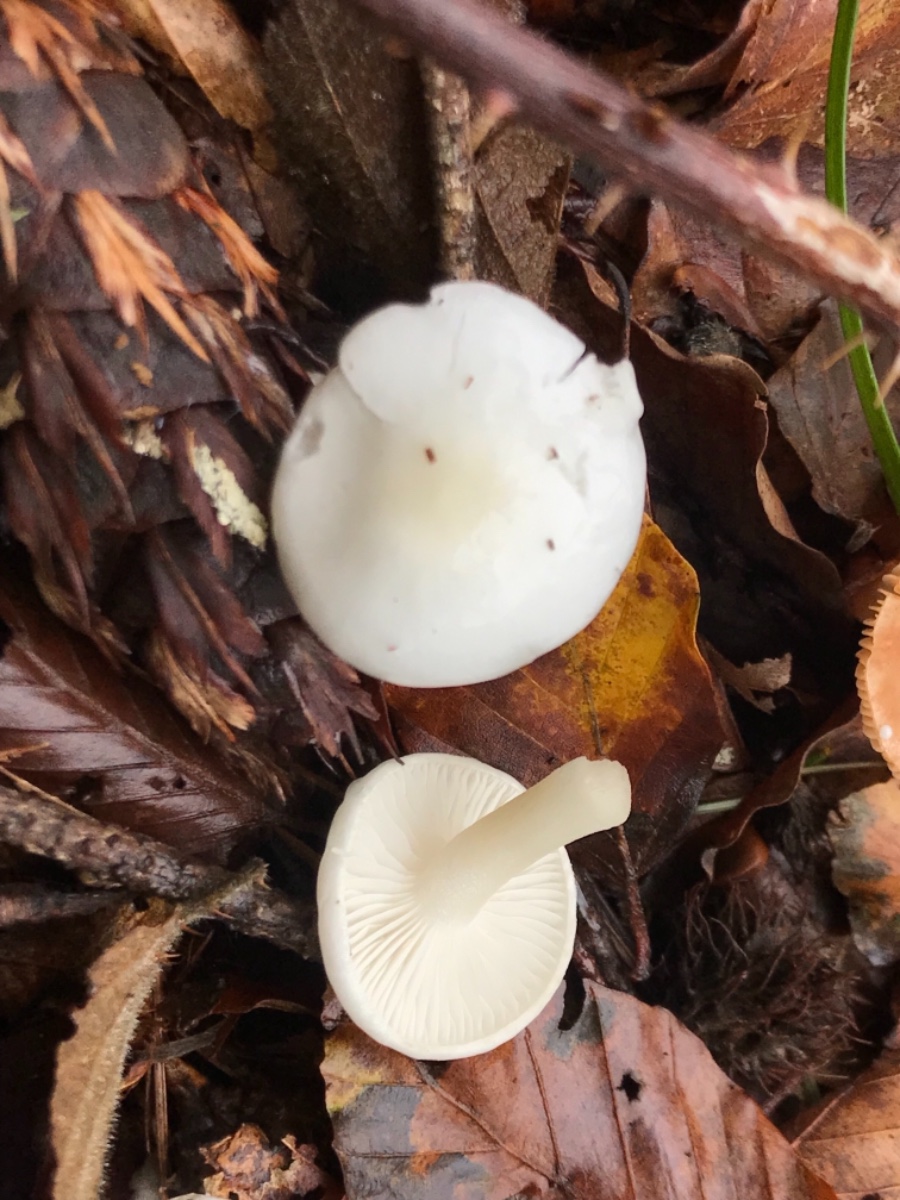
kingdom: Fungi
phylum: Basidiomycota
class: Agaricomycetes
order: Agaricales
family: Hygrophoraceae
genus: Hygrophorus
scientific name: Hygrophorus
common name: sneglehat
